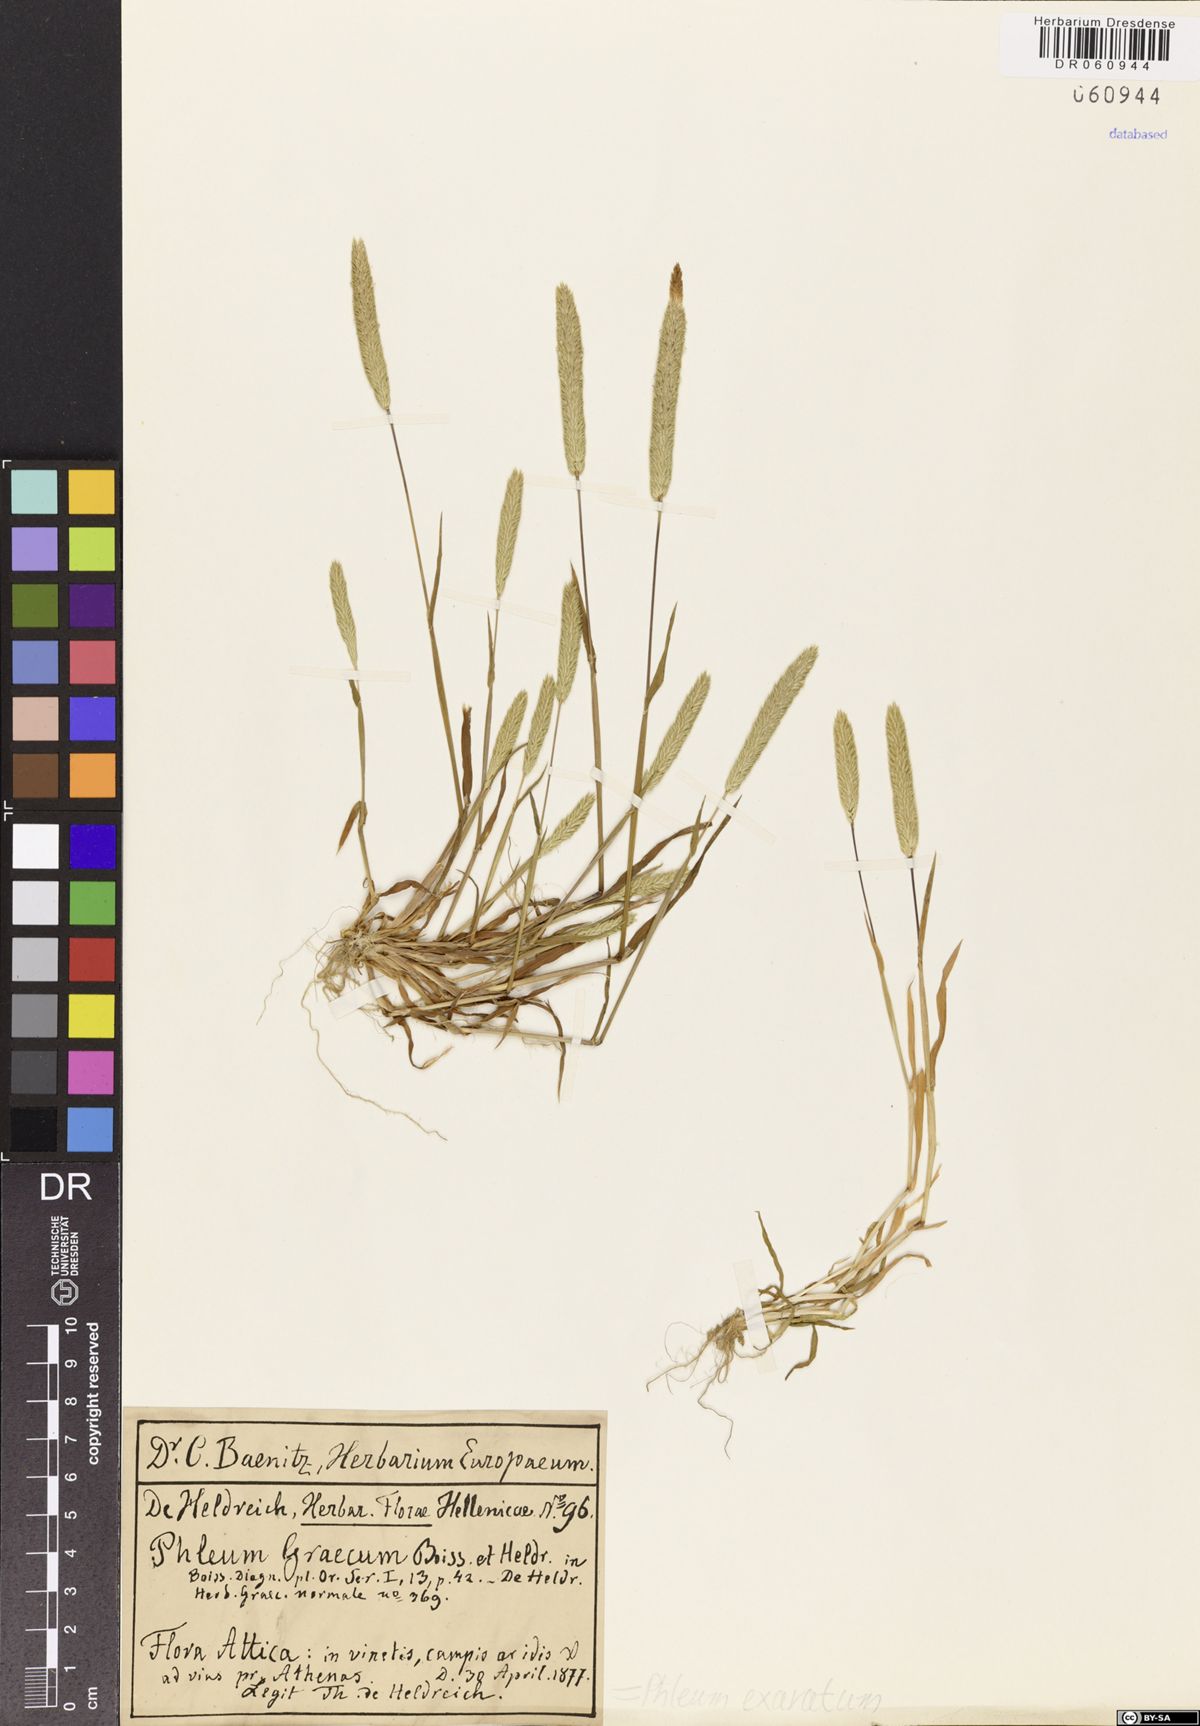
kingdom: Plantae
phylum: Tracheophyta
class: Liliopsida
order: Poales
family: Poaceae
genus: Phleum
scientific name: Phleum exaratum
